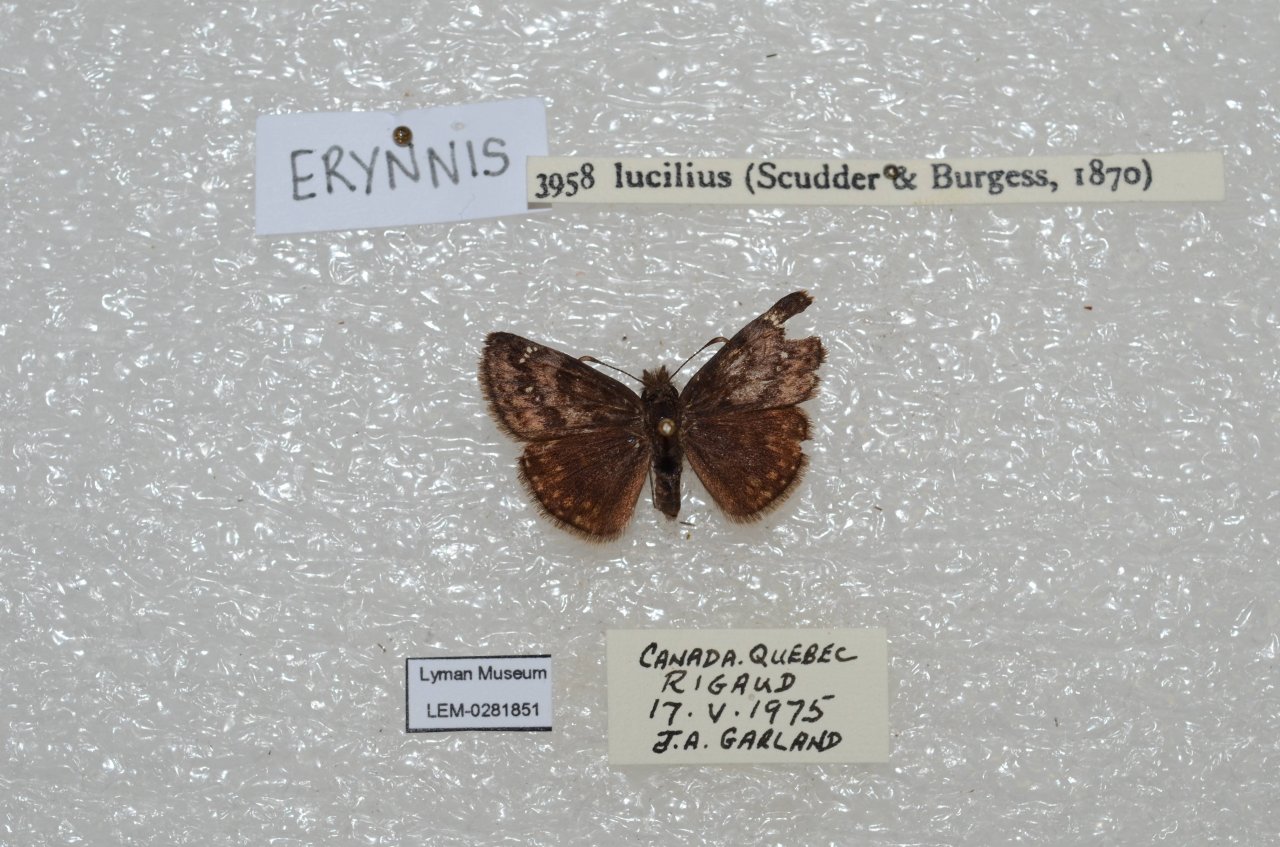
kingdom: Animalia
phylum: Arthropoda
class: Insecta
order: Lepidoptera
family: Hesperiidae
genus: Gesta
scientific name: Gesta
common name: Columbine Duskywing
